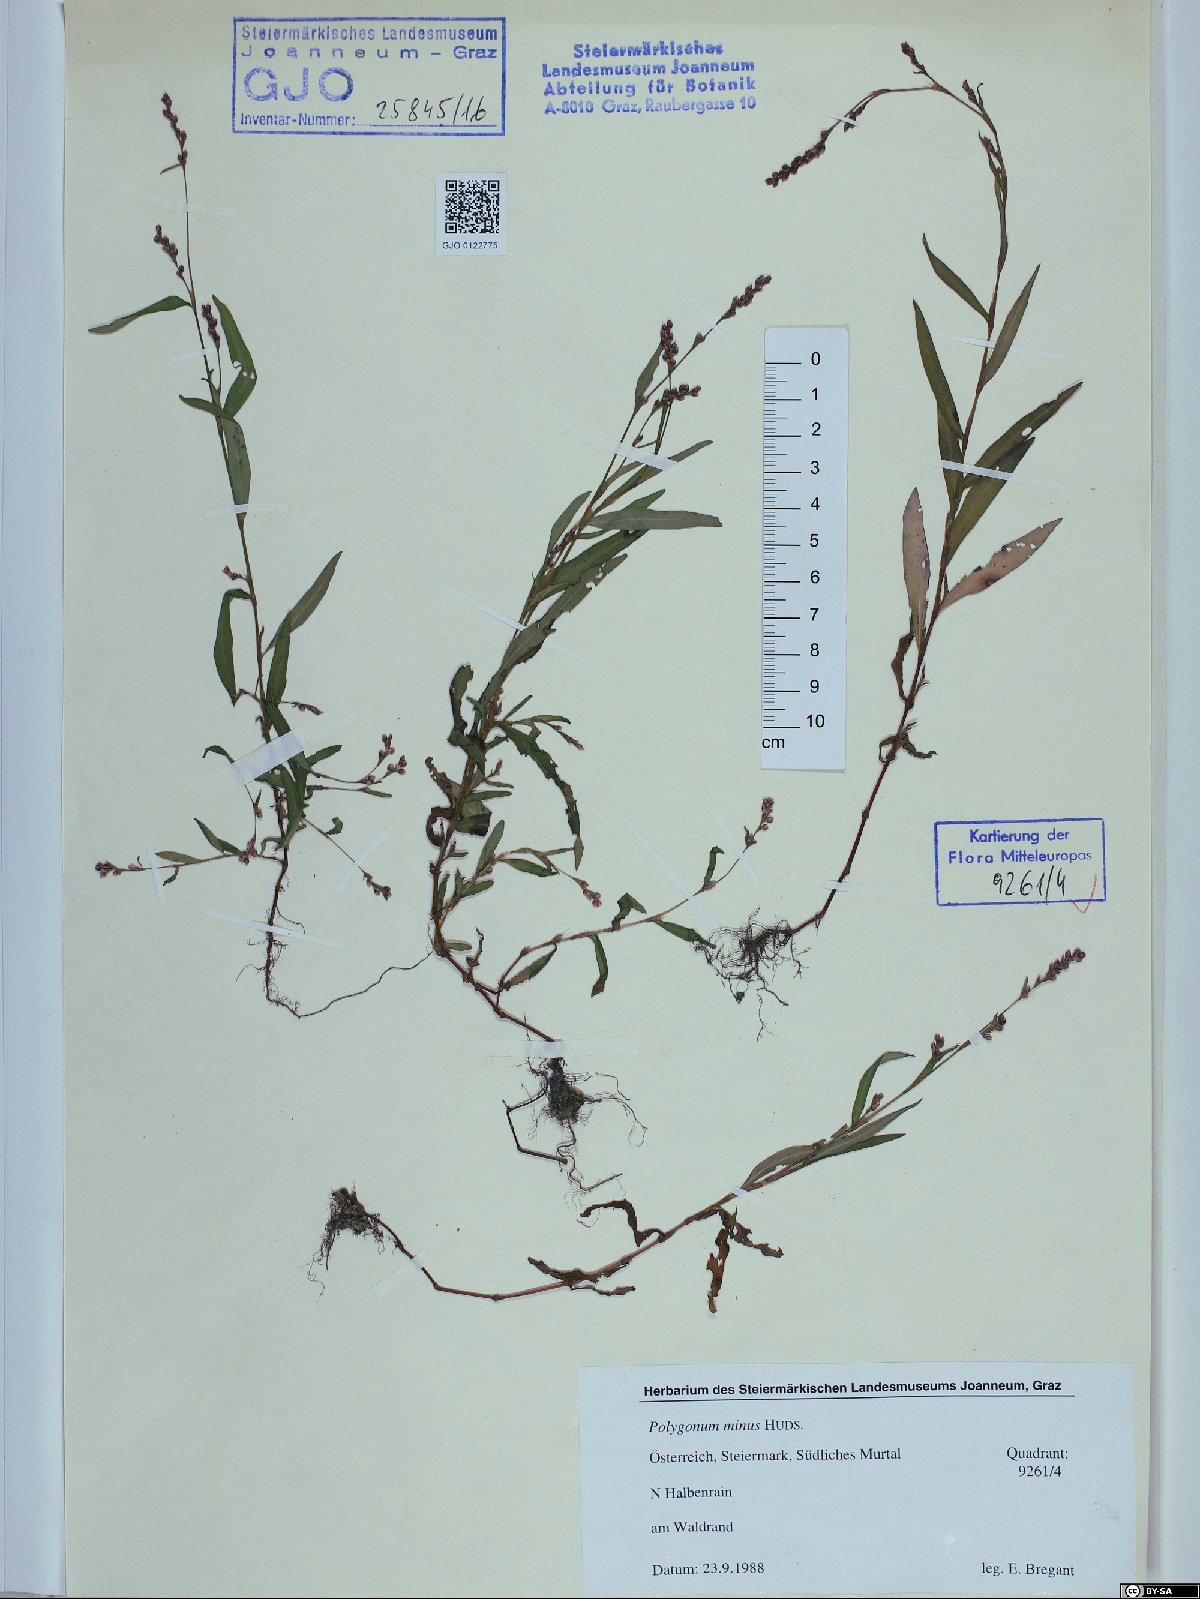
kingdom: Plantae
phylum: Tracheophyta
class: Magnoliopsida
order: Caryophyllales
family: Polygonaceae
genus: Persicaria
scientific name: Persicaria minor
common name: Small water-pepper
